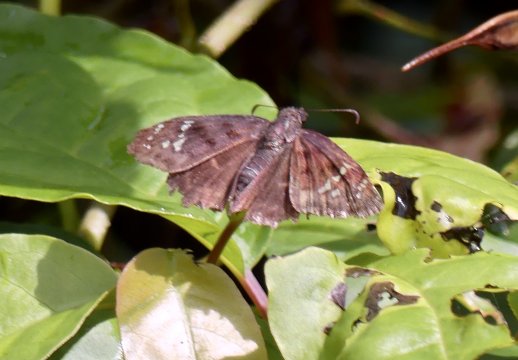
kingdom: Animalia
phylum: Arthropoda
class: Insecta
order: Lepidoptera
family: Hesperiidae
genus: Ephyriades
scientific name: Ephyriades zephodes
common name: Zephodes Duskywing
